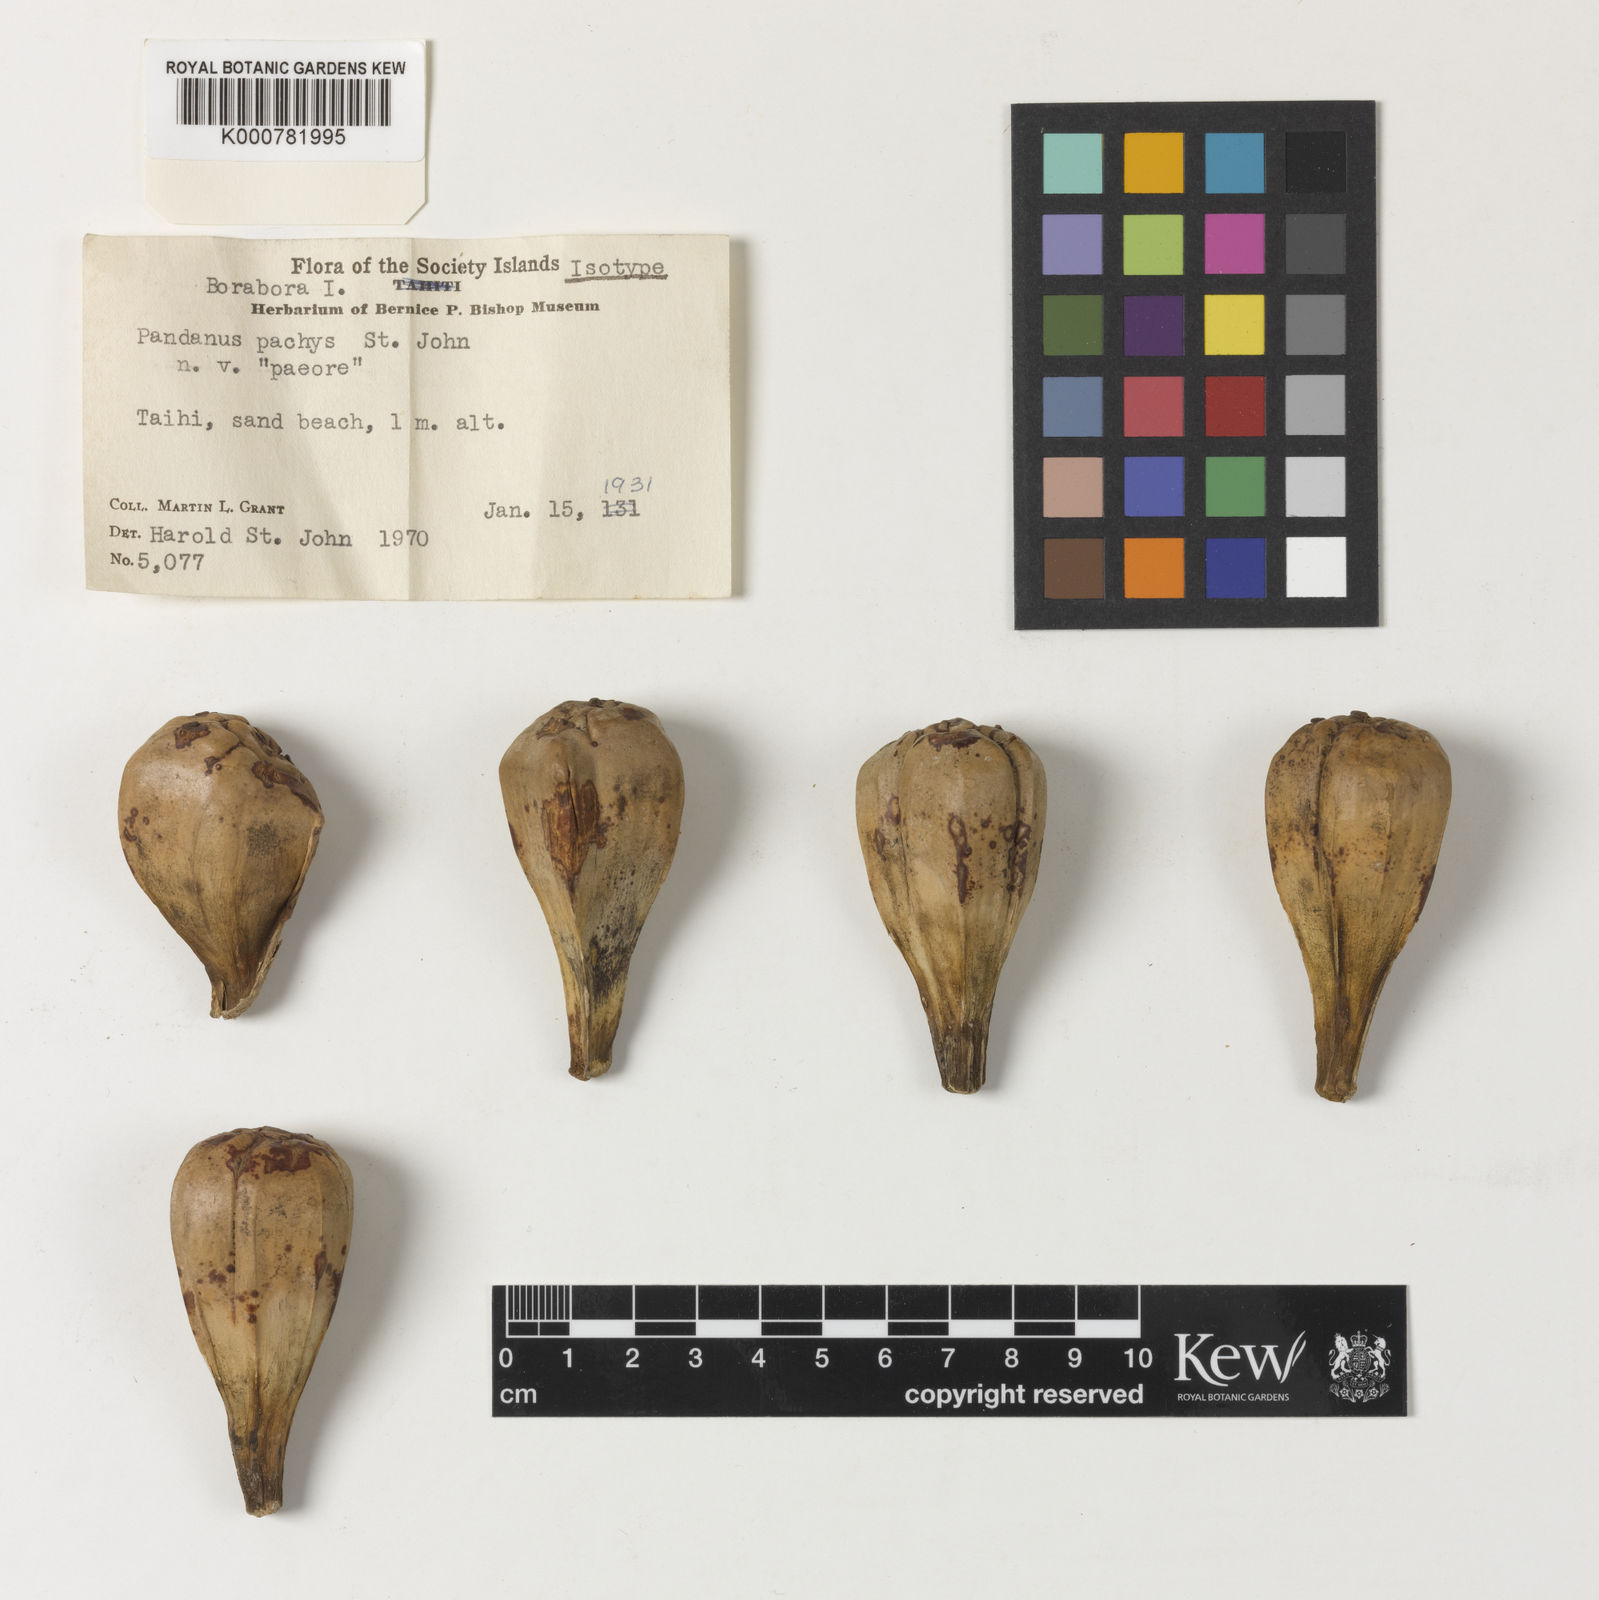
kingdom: Plantae
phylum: Tracheophyta
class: Liliopsida
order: Pandanales
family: Pandanaceae
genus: Pandanus
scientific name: Pandanus tectorius
